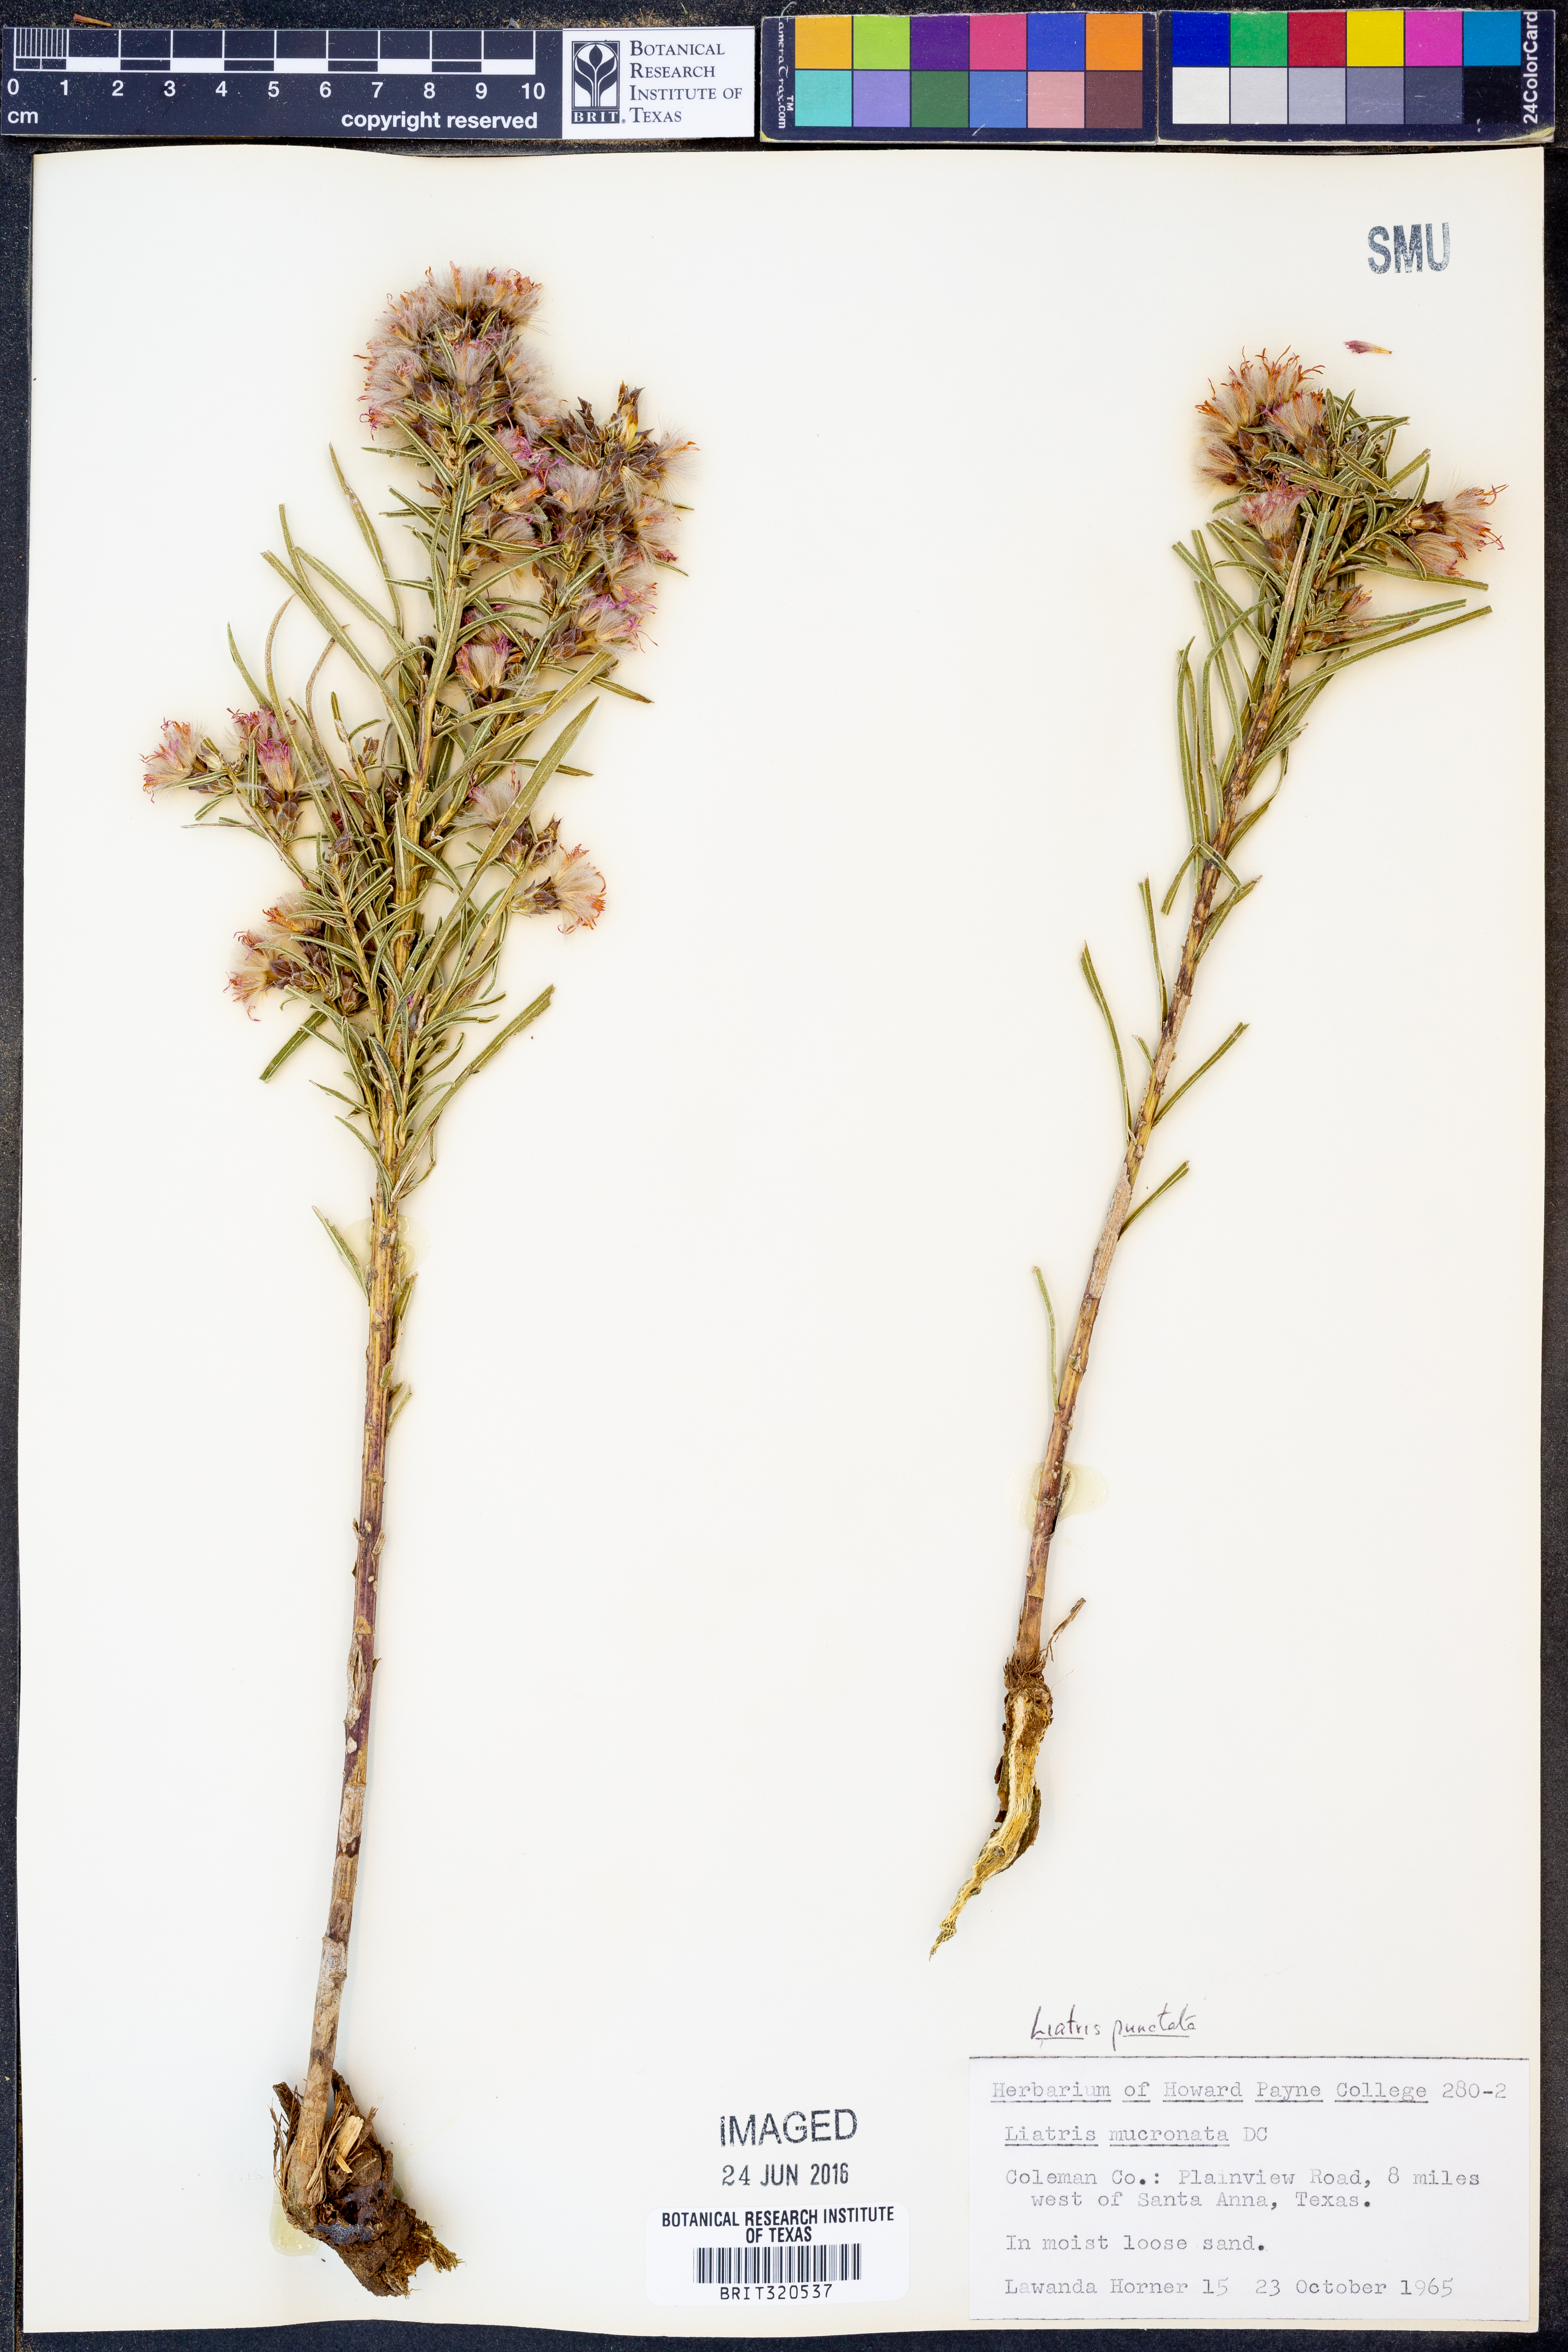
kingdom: Plantae
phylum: Tracheophyta
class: Magnoliopsida
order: Asterales
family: Asteraceae
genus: Liatris
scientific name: Liatris punctata
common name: Dotted gayfeather
